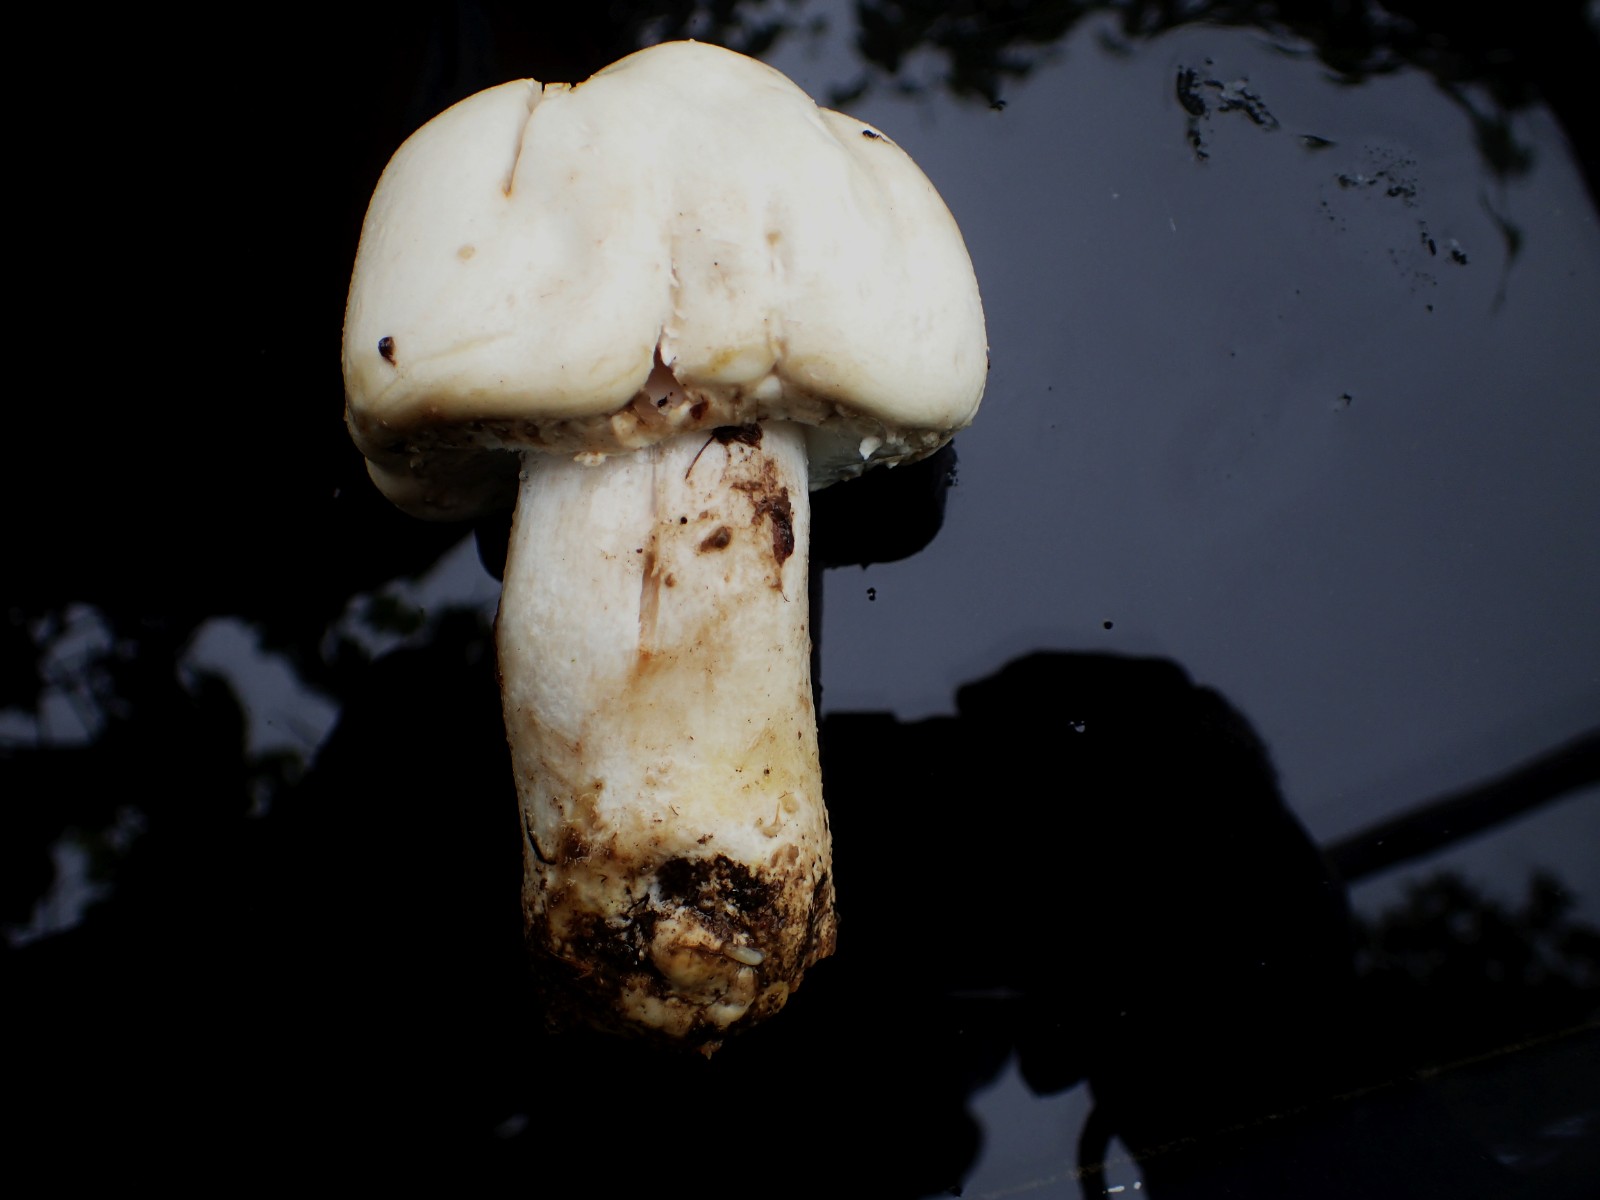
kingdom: Fungi
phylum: Basidiomycota
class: Agaricomycetes
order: Agaricales
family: Agaricaceae
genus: Agaricus
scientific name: Agaricus arvensis
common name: ager-champignon
